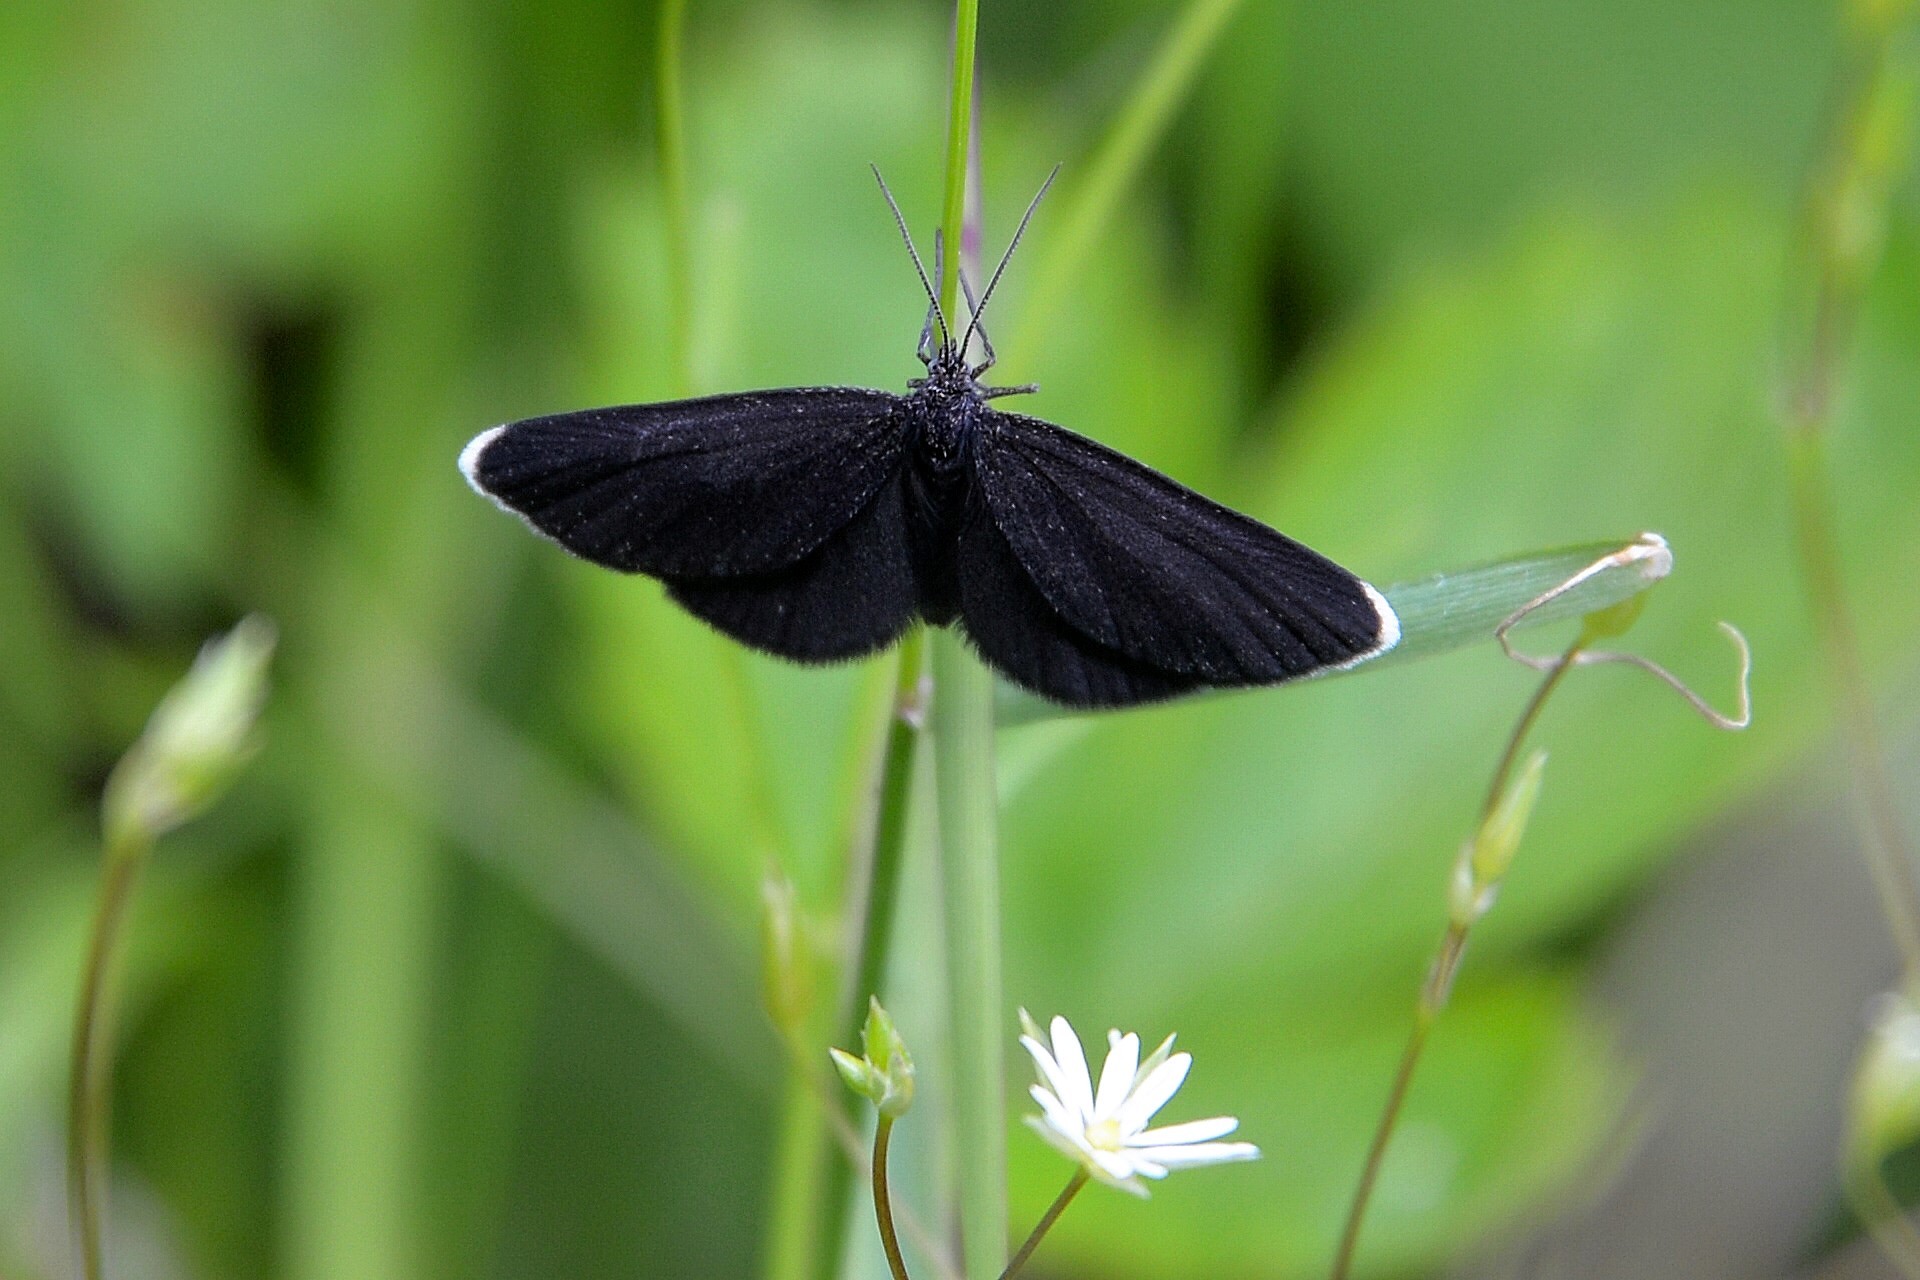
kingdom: Animalia
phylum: Arthropoda
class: Insecta
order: Lepidoptera
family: Geometridae
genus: Odezia
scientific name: Odezia atrata
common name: Chimney sweeper
